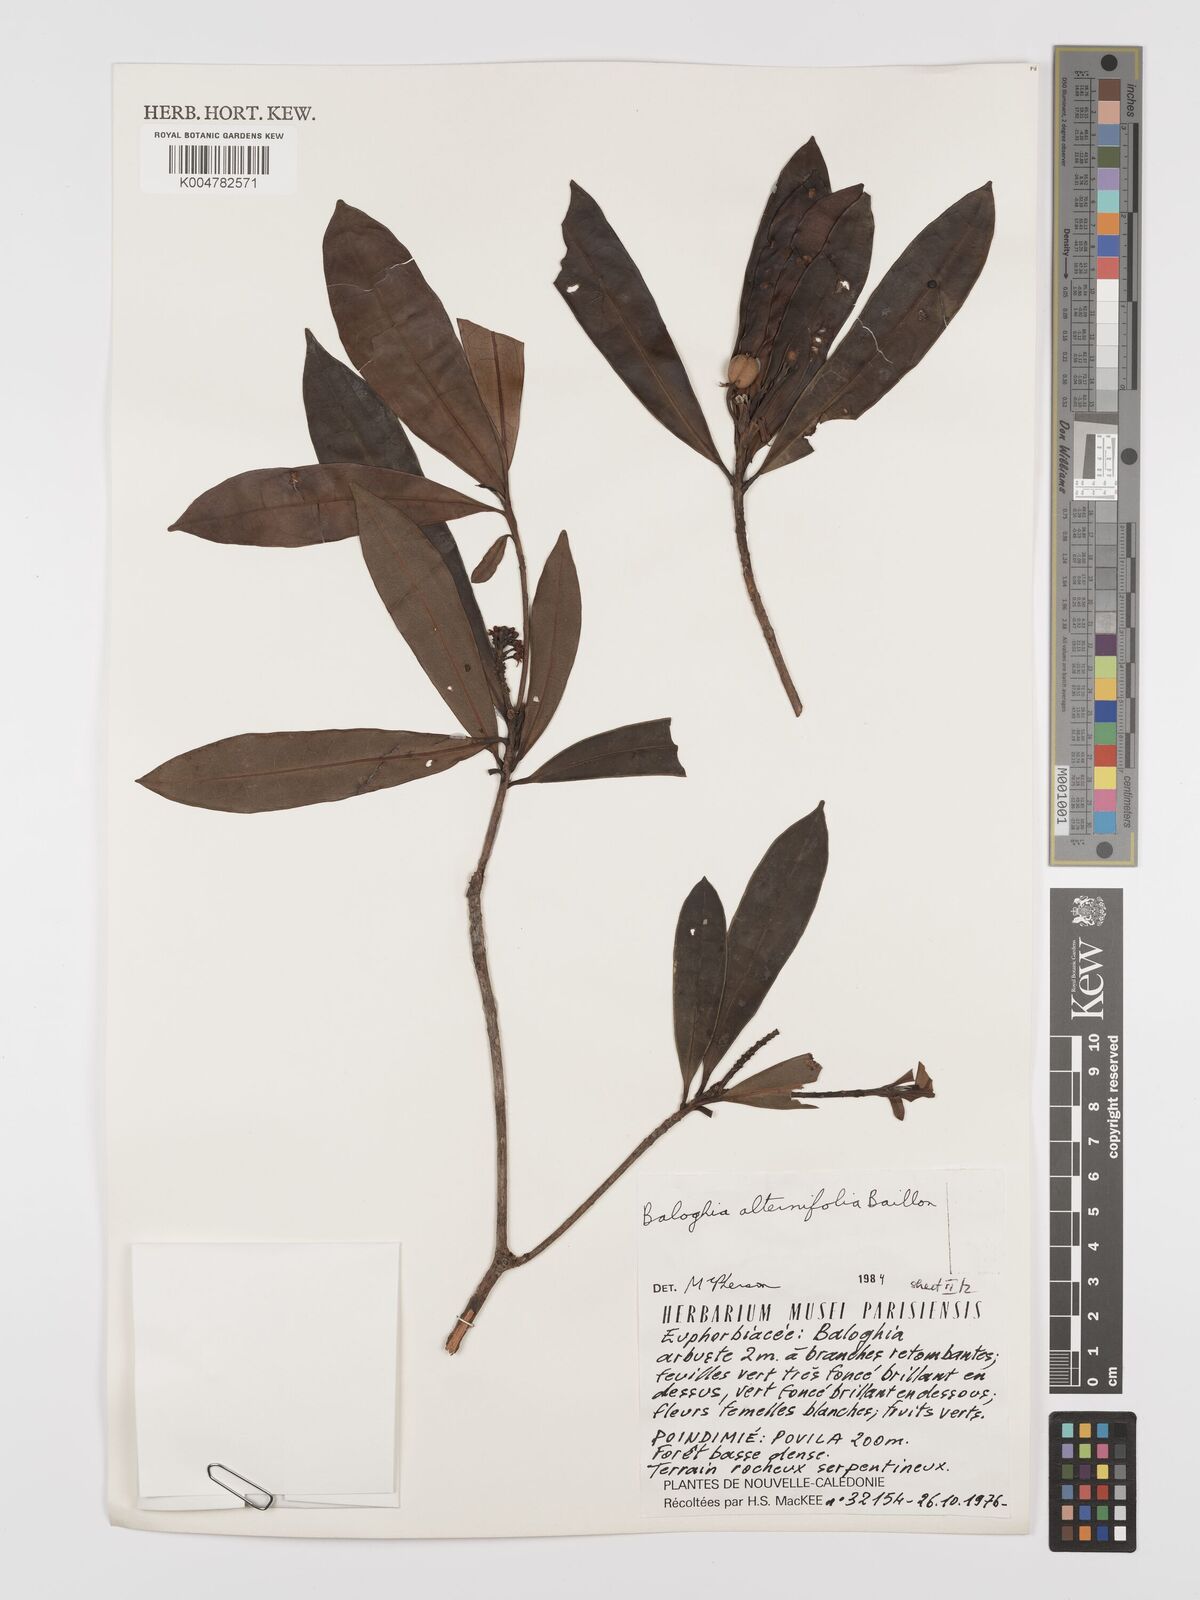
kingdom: Plantae
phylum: Tracheophyta
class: Magnoliopsida
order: Malpighiales
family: Euphorbiaceae
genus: Baloghia
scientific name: Baloghia alternifolia
